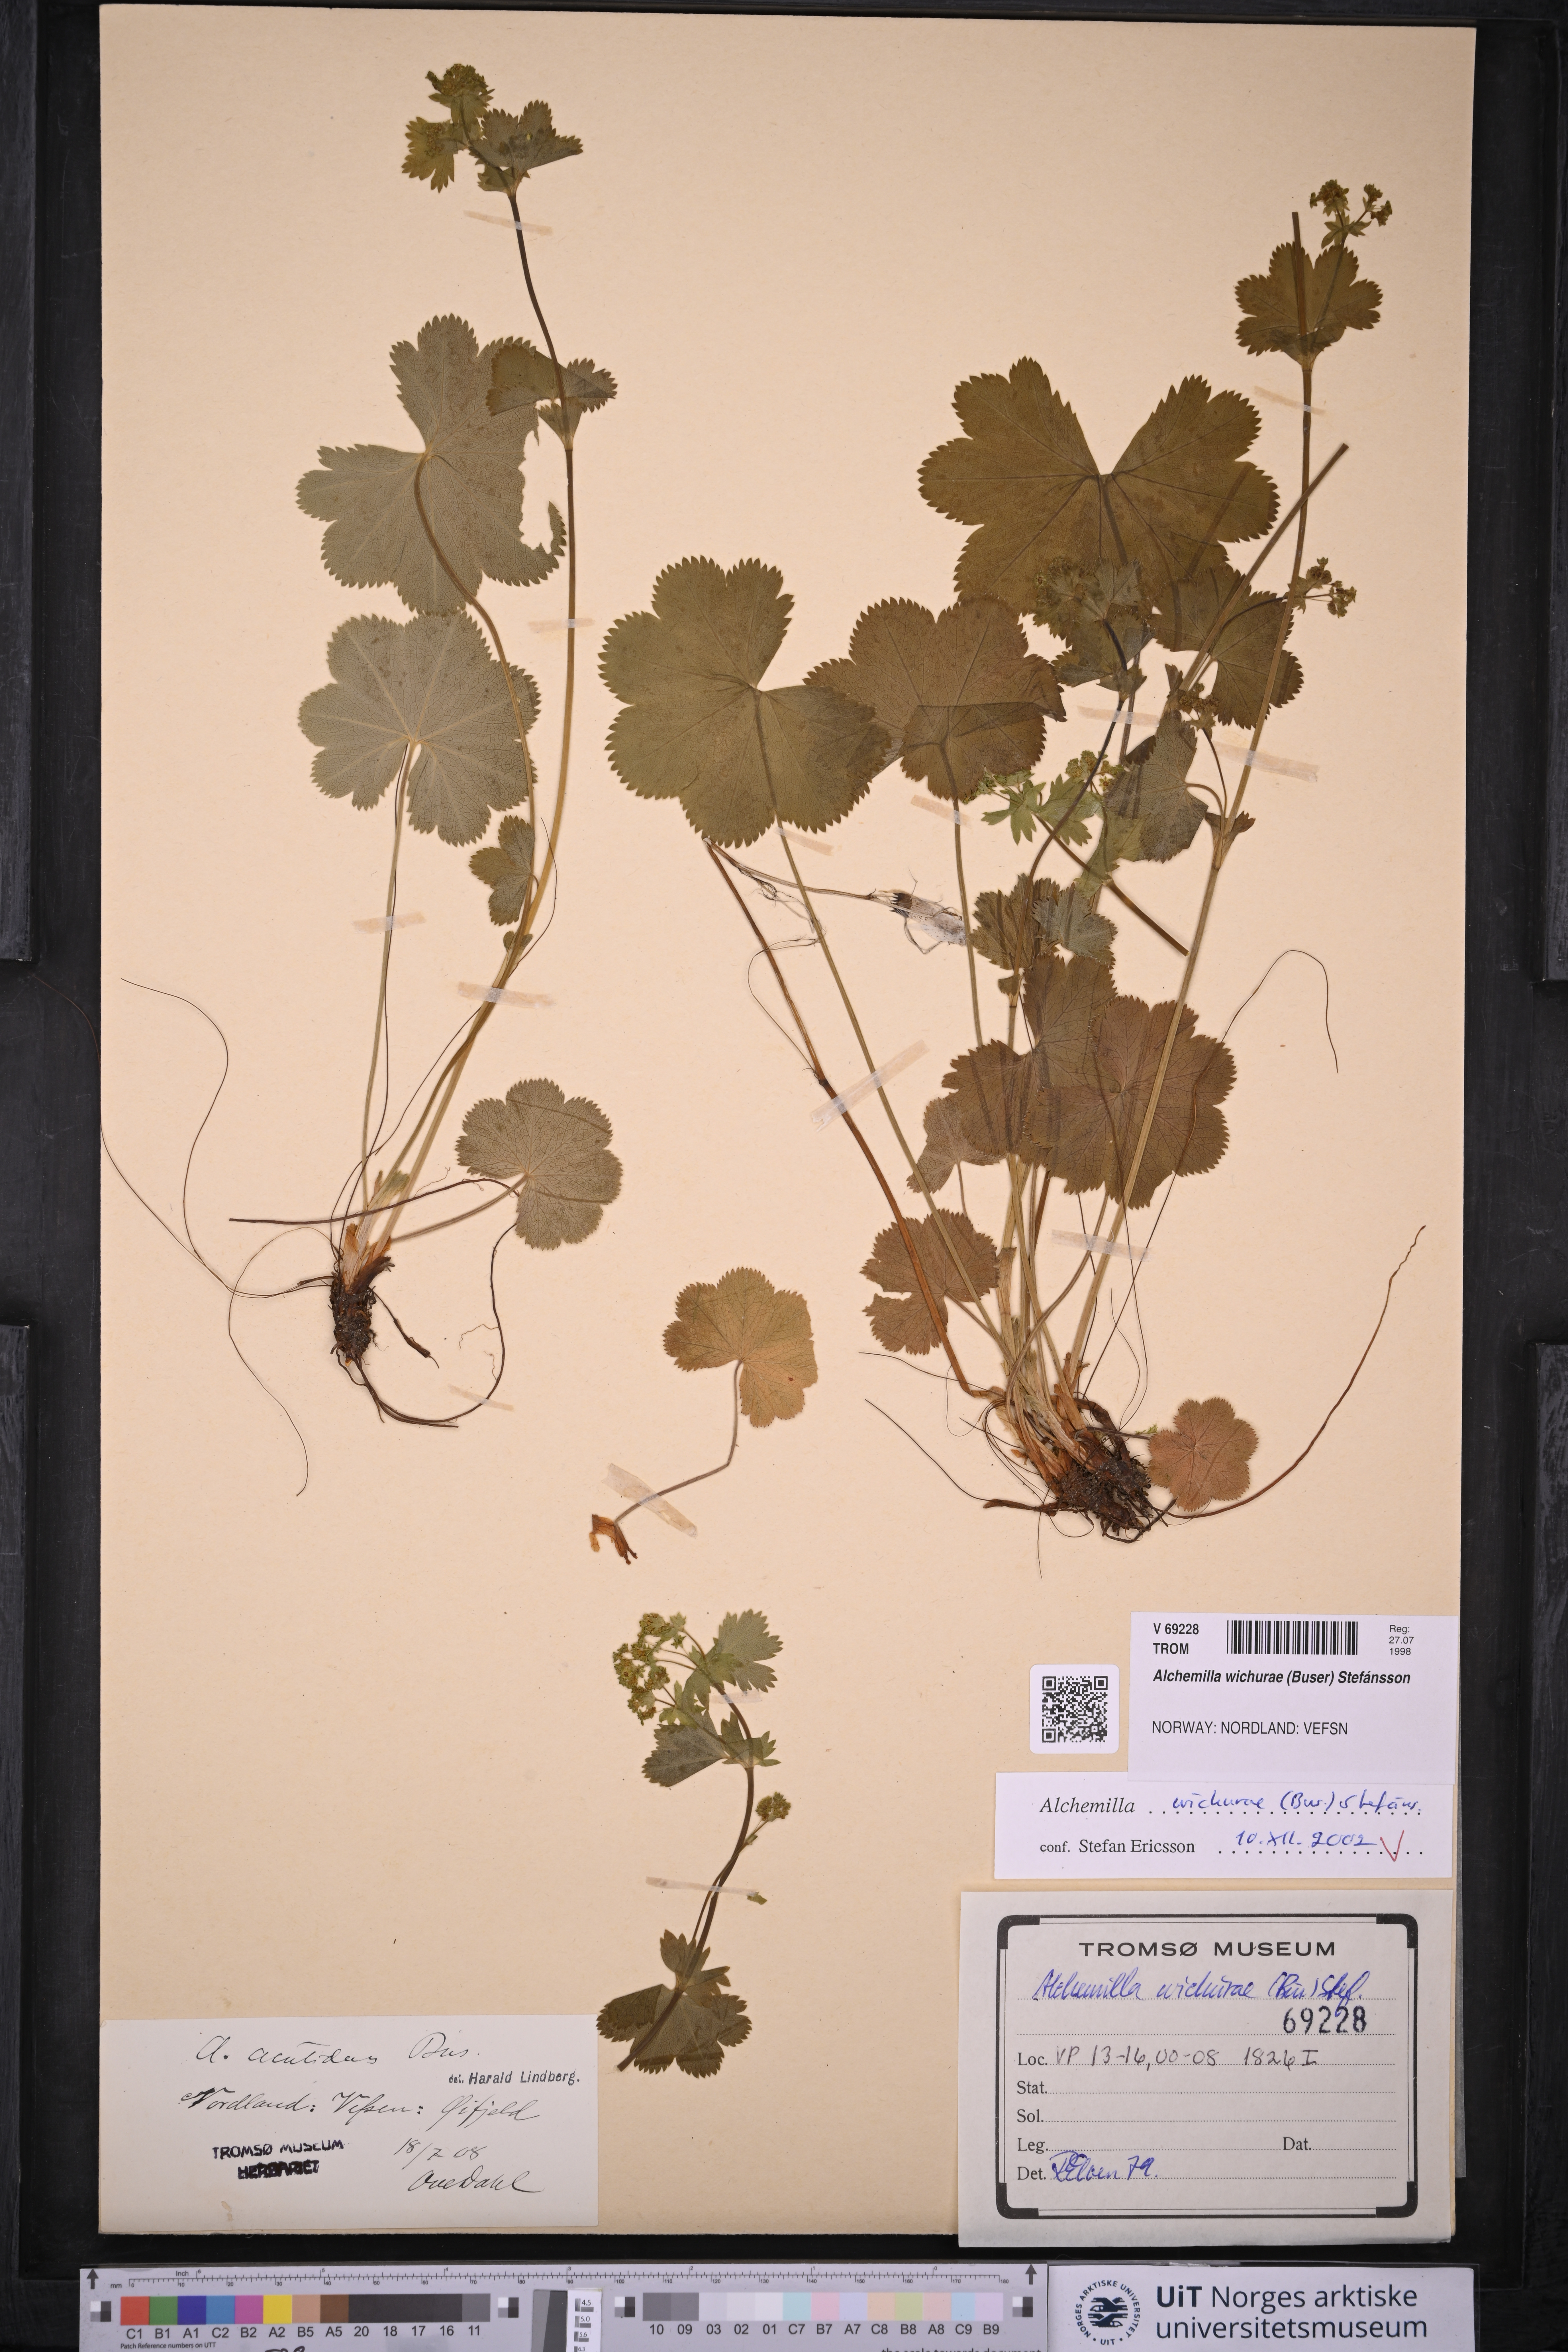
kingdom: Plantae
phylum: Tracheophyta
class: Magnoliopsida
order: Rosales
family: Rosaceae
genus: Alchemilla
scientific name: Alchemilla wichurae
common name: Rock lady's mantle
